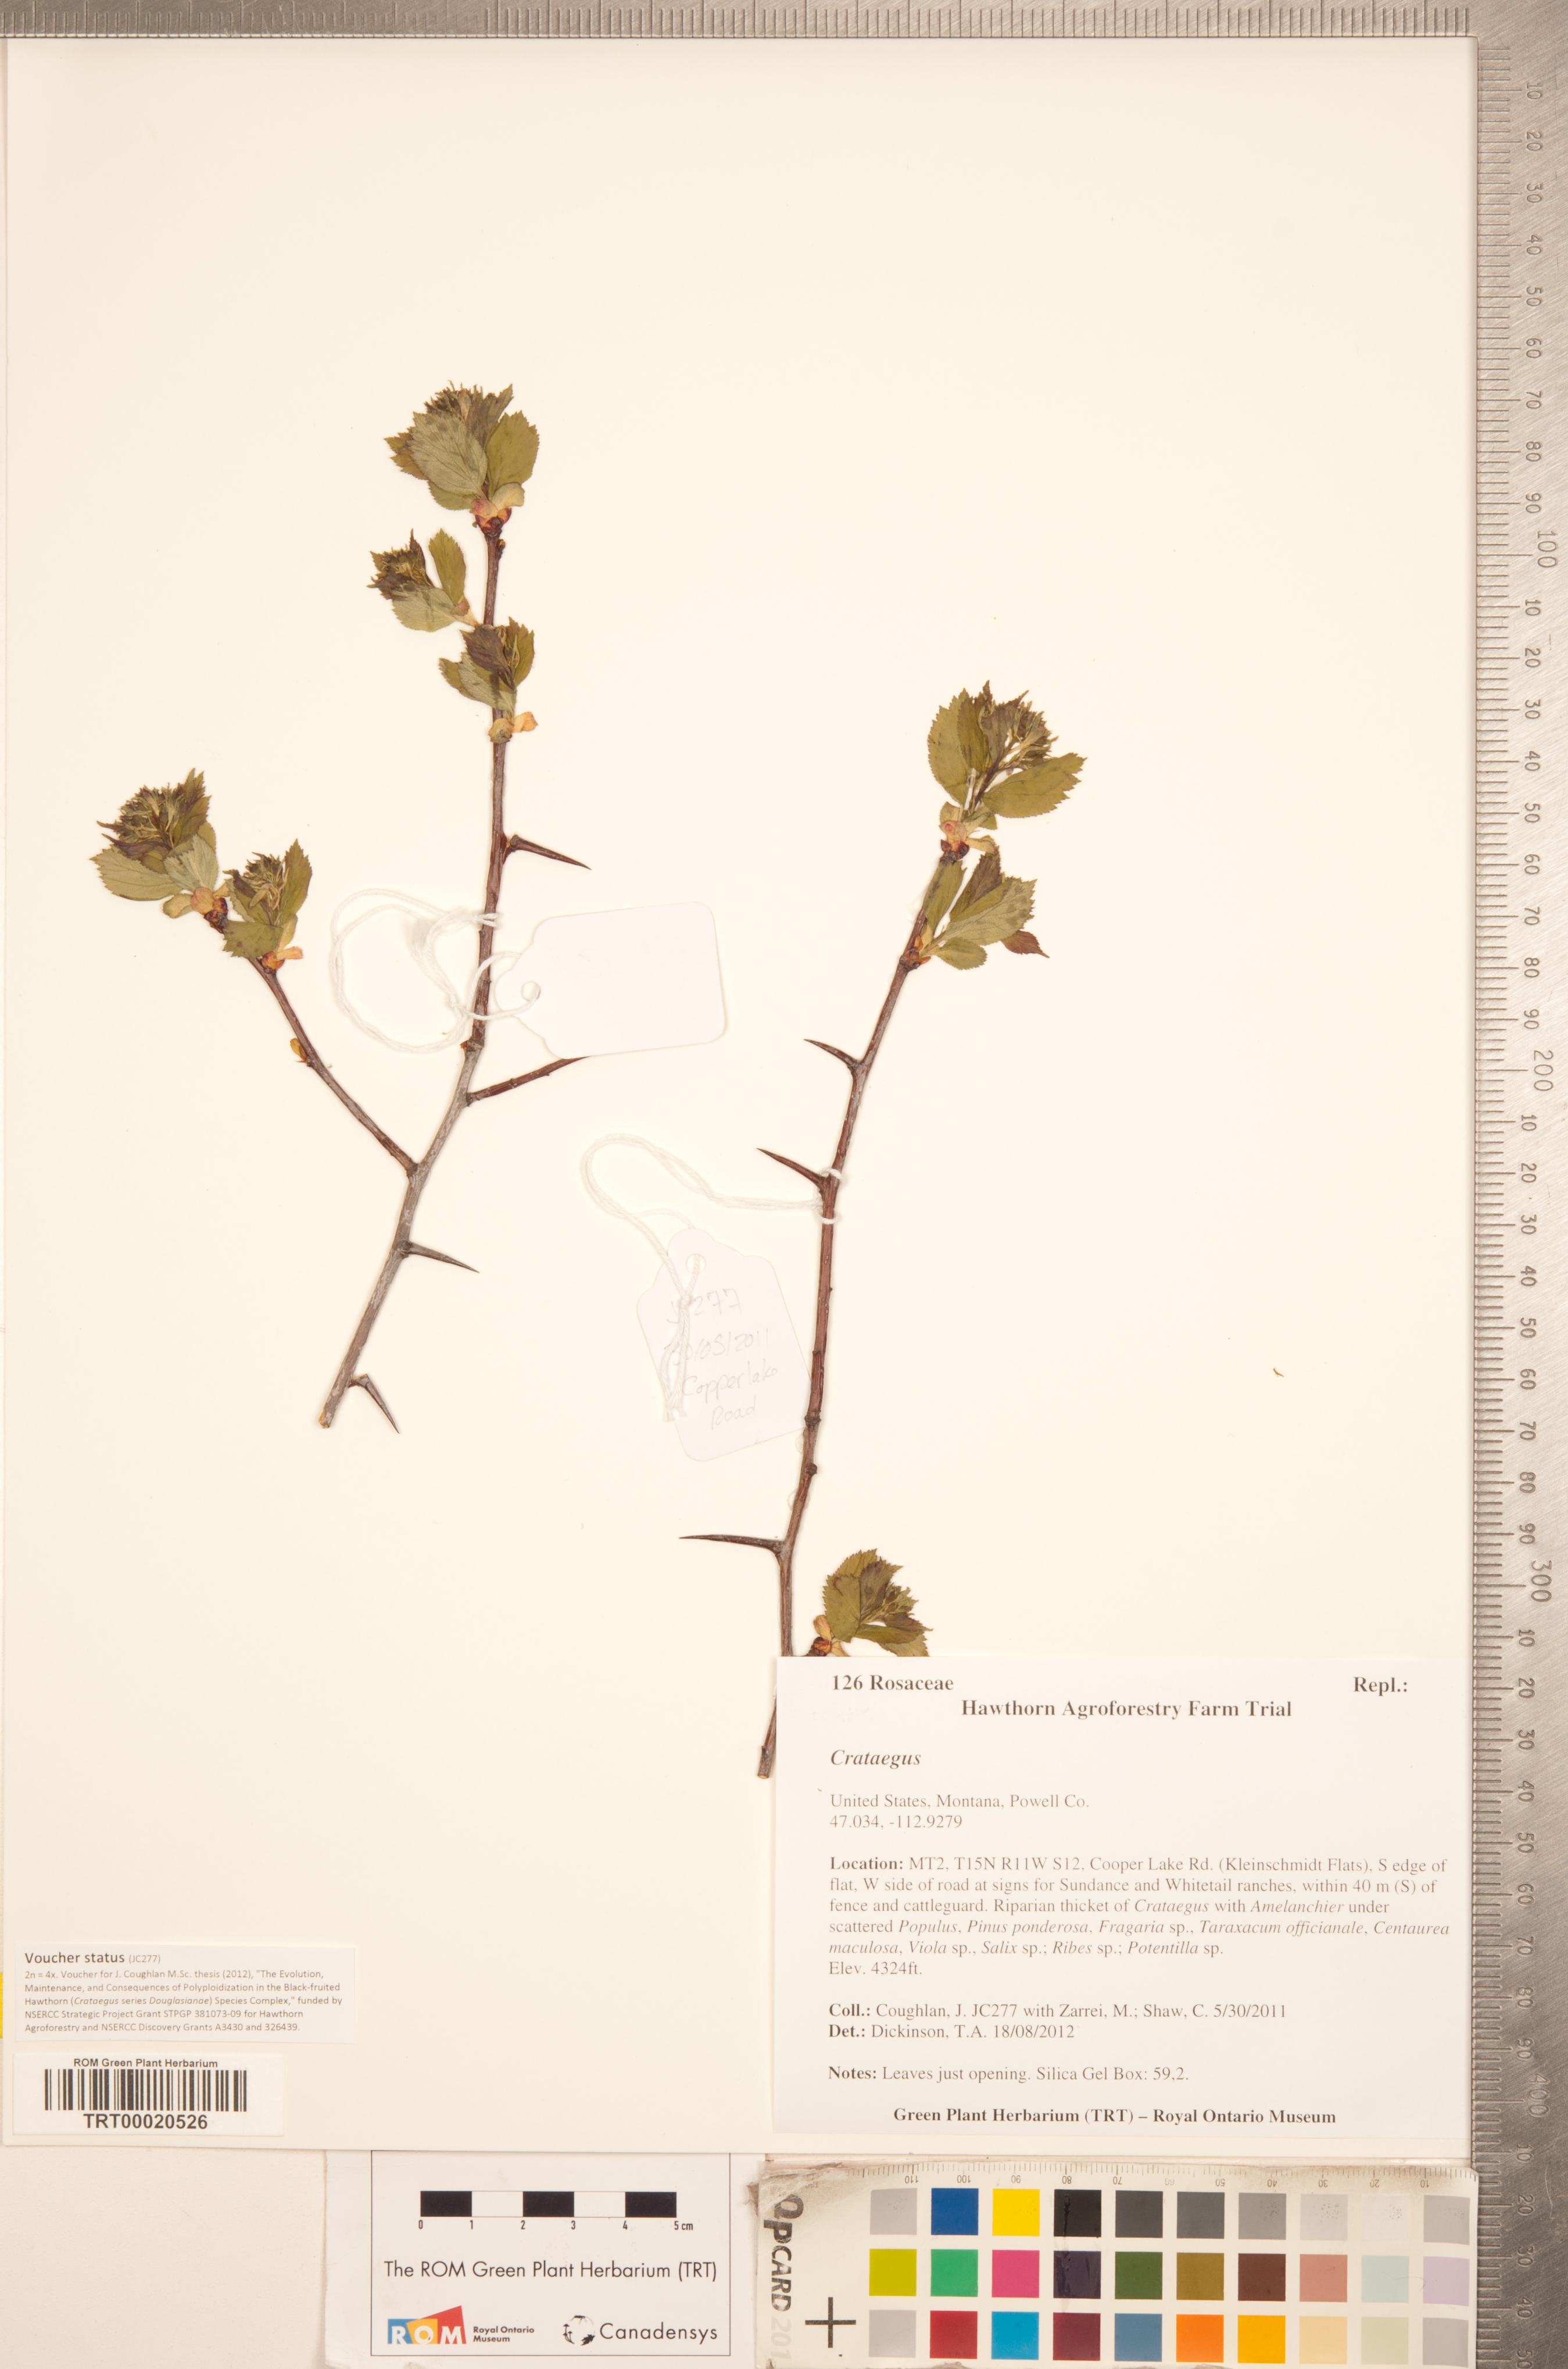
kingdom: Plantae
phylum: Tracheophyta
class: Magnoliopsida
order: Rosales
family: Rosaceae
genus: Crataegus
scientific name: Crataegus
